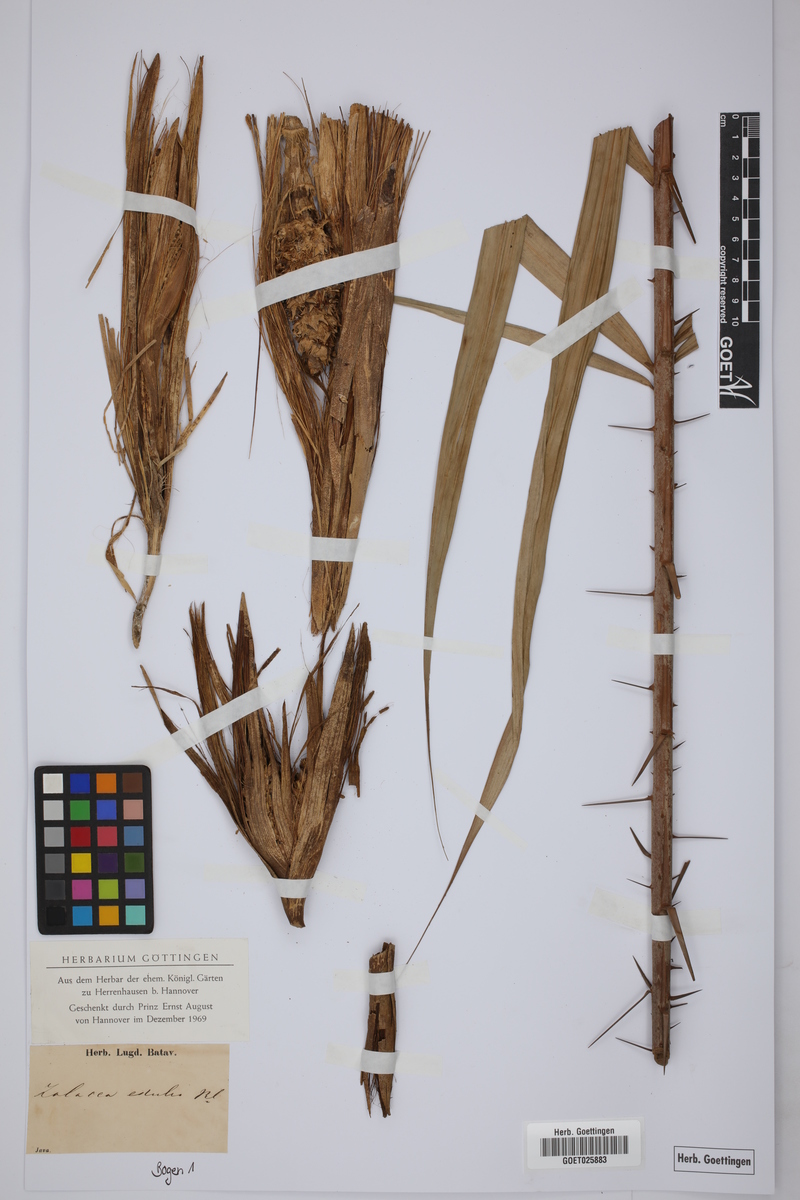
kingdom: Plantae
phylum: Tracheophyta
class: Liliopsida
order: Arecales
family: Arecaceae
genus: Salacca
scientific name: Salacca edulis
